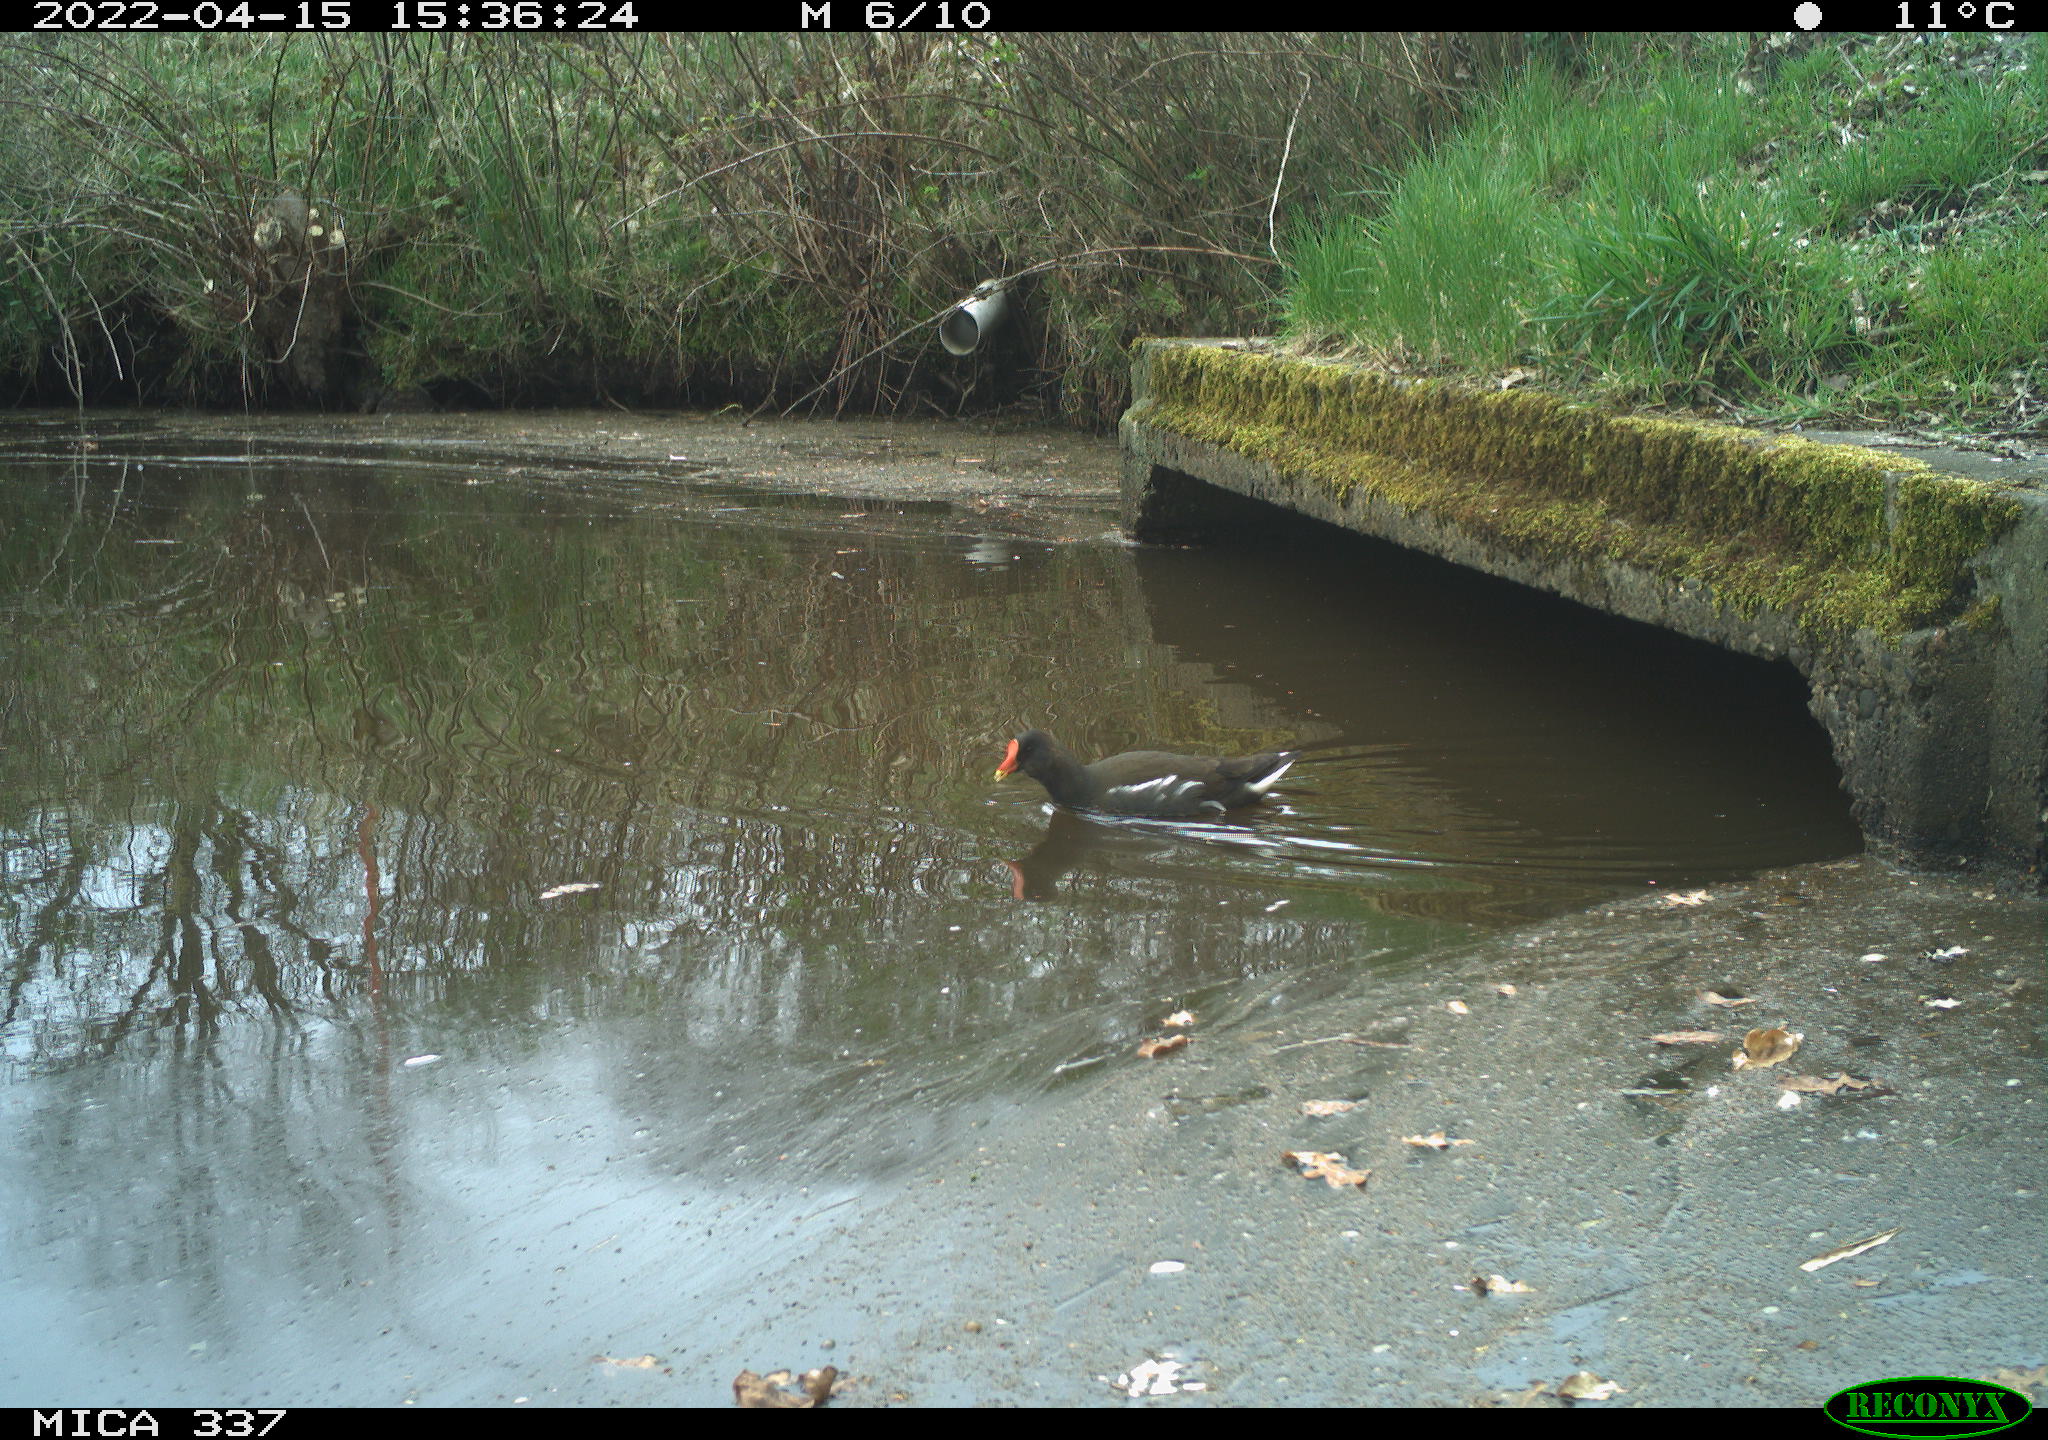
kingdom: Animalia
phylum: Chordata
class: Aves
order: Gruiformes
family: Rallidae
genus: Gallinula
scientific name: Gallinula chloropus
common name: Common moorhen
